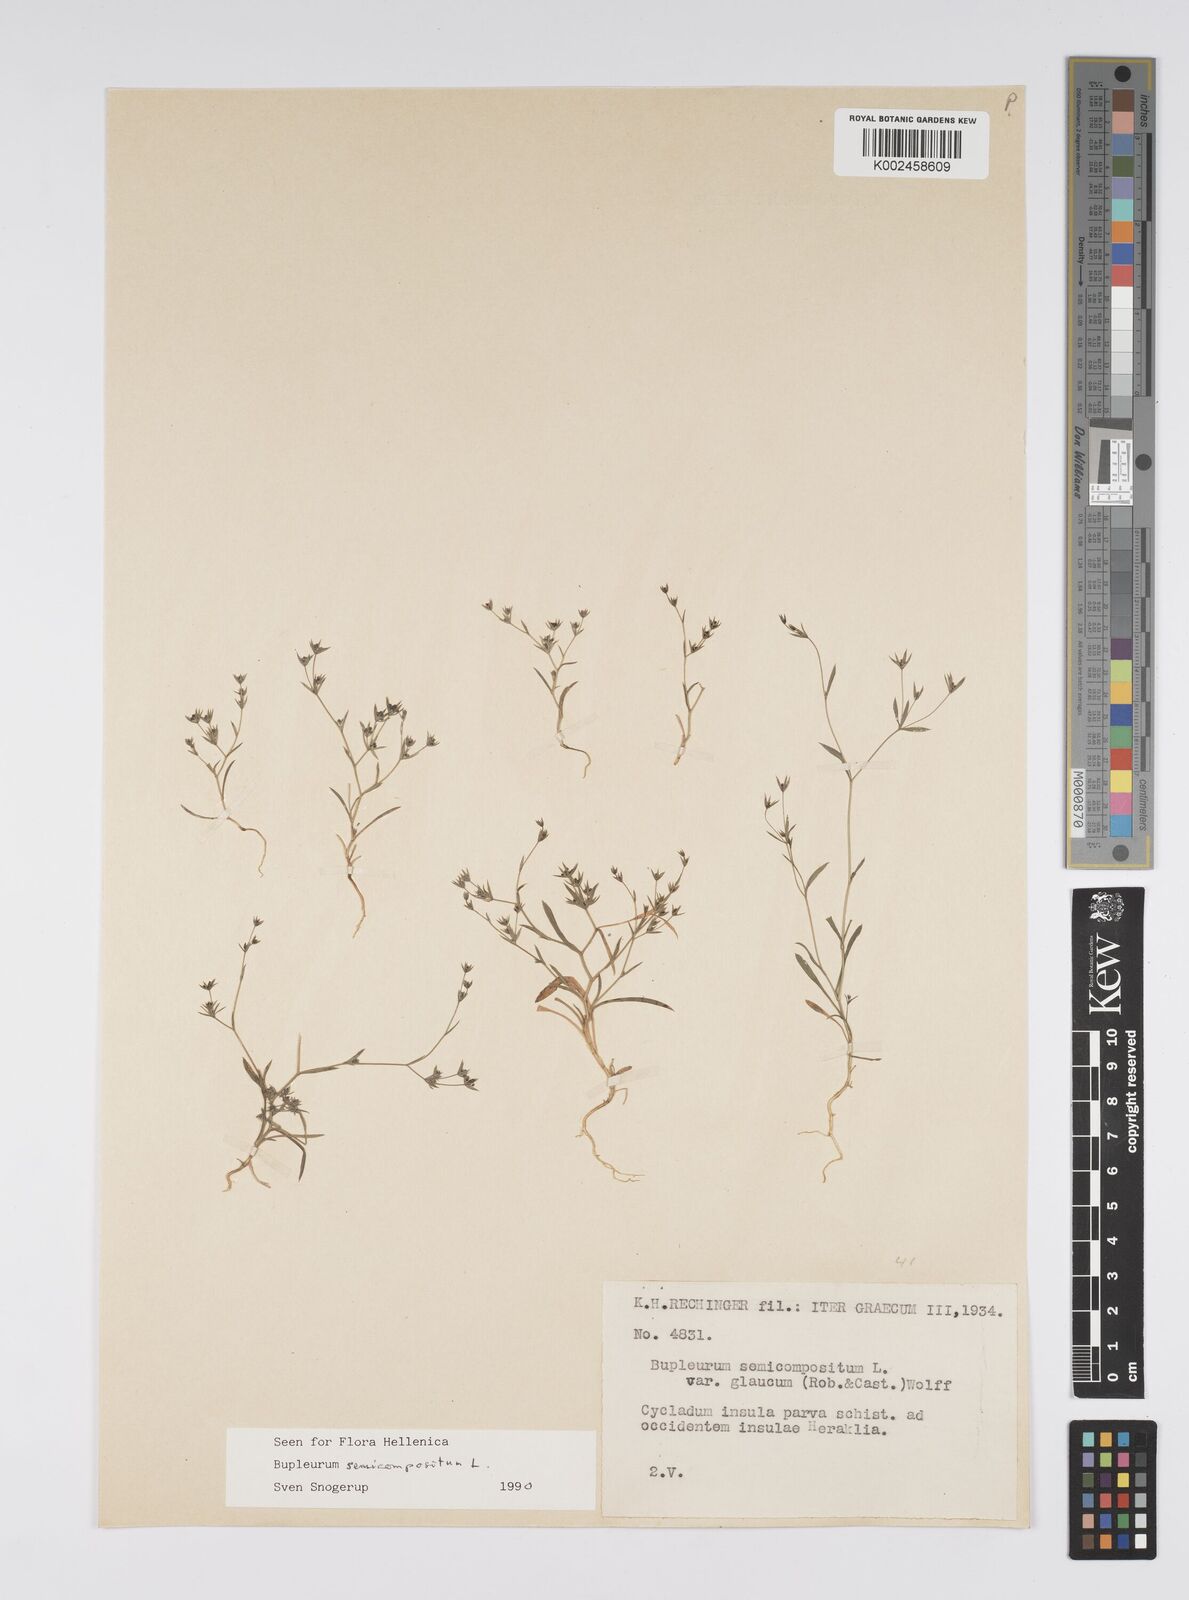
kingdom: Plantae
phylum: Tracheophyta
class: Magnoliopsida
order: Apiales
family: Apiaceae
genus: Bupleurum
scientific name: Bupleurum semicompositum
